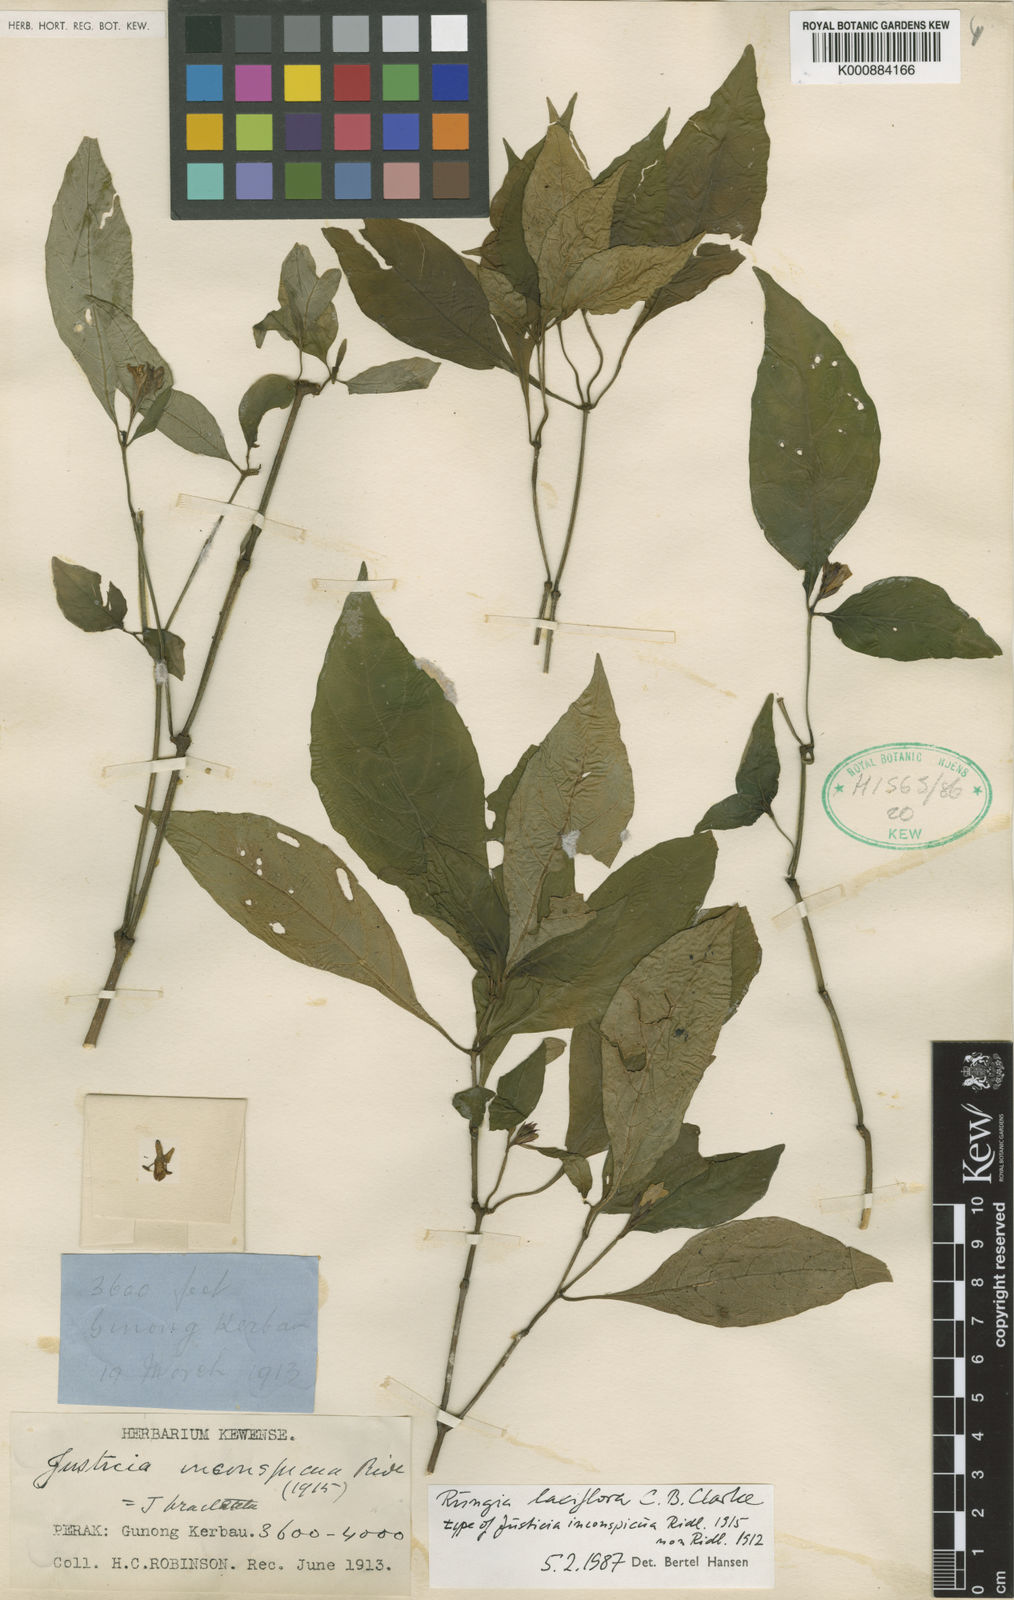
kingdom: Plantae
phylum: Tracheophyta
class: Magnoliopsida
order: Lamiales
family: Acanthaceae
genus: Haplanthus
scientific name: Haplanthus laxiflorus
